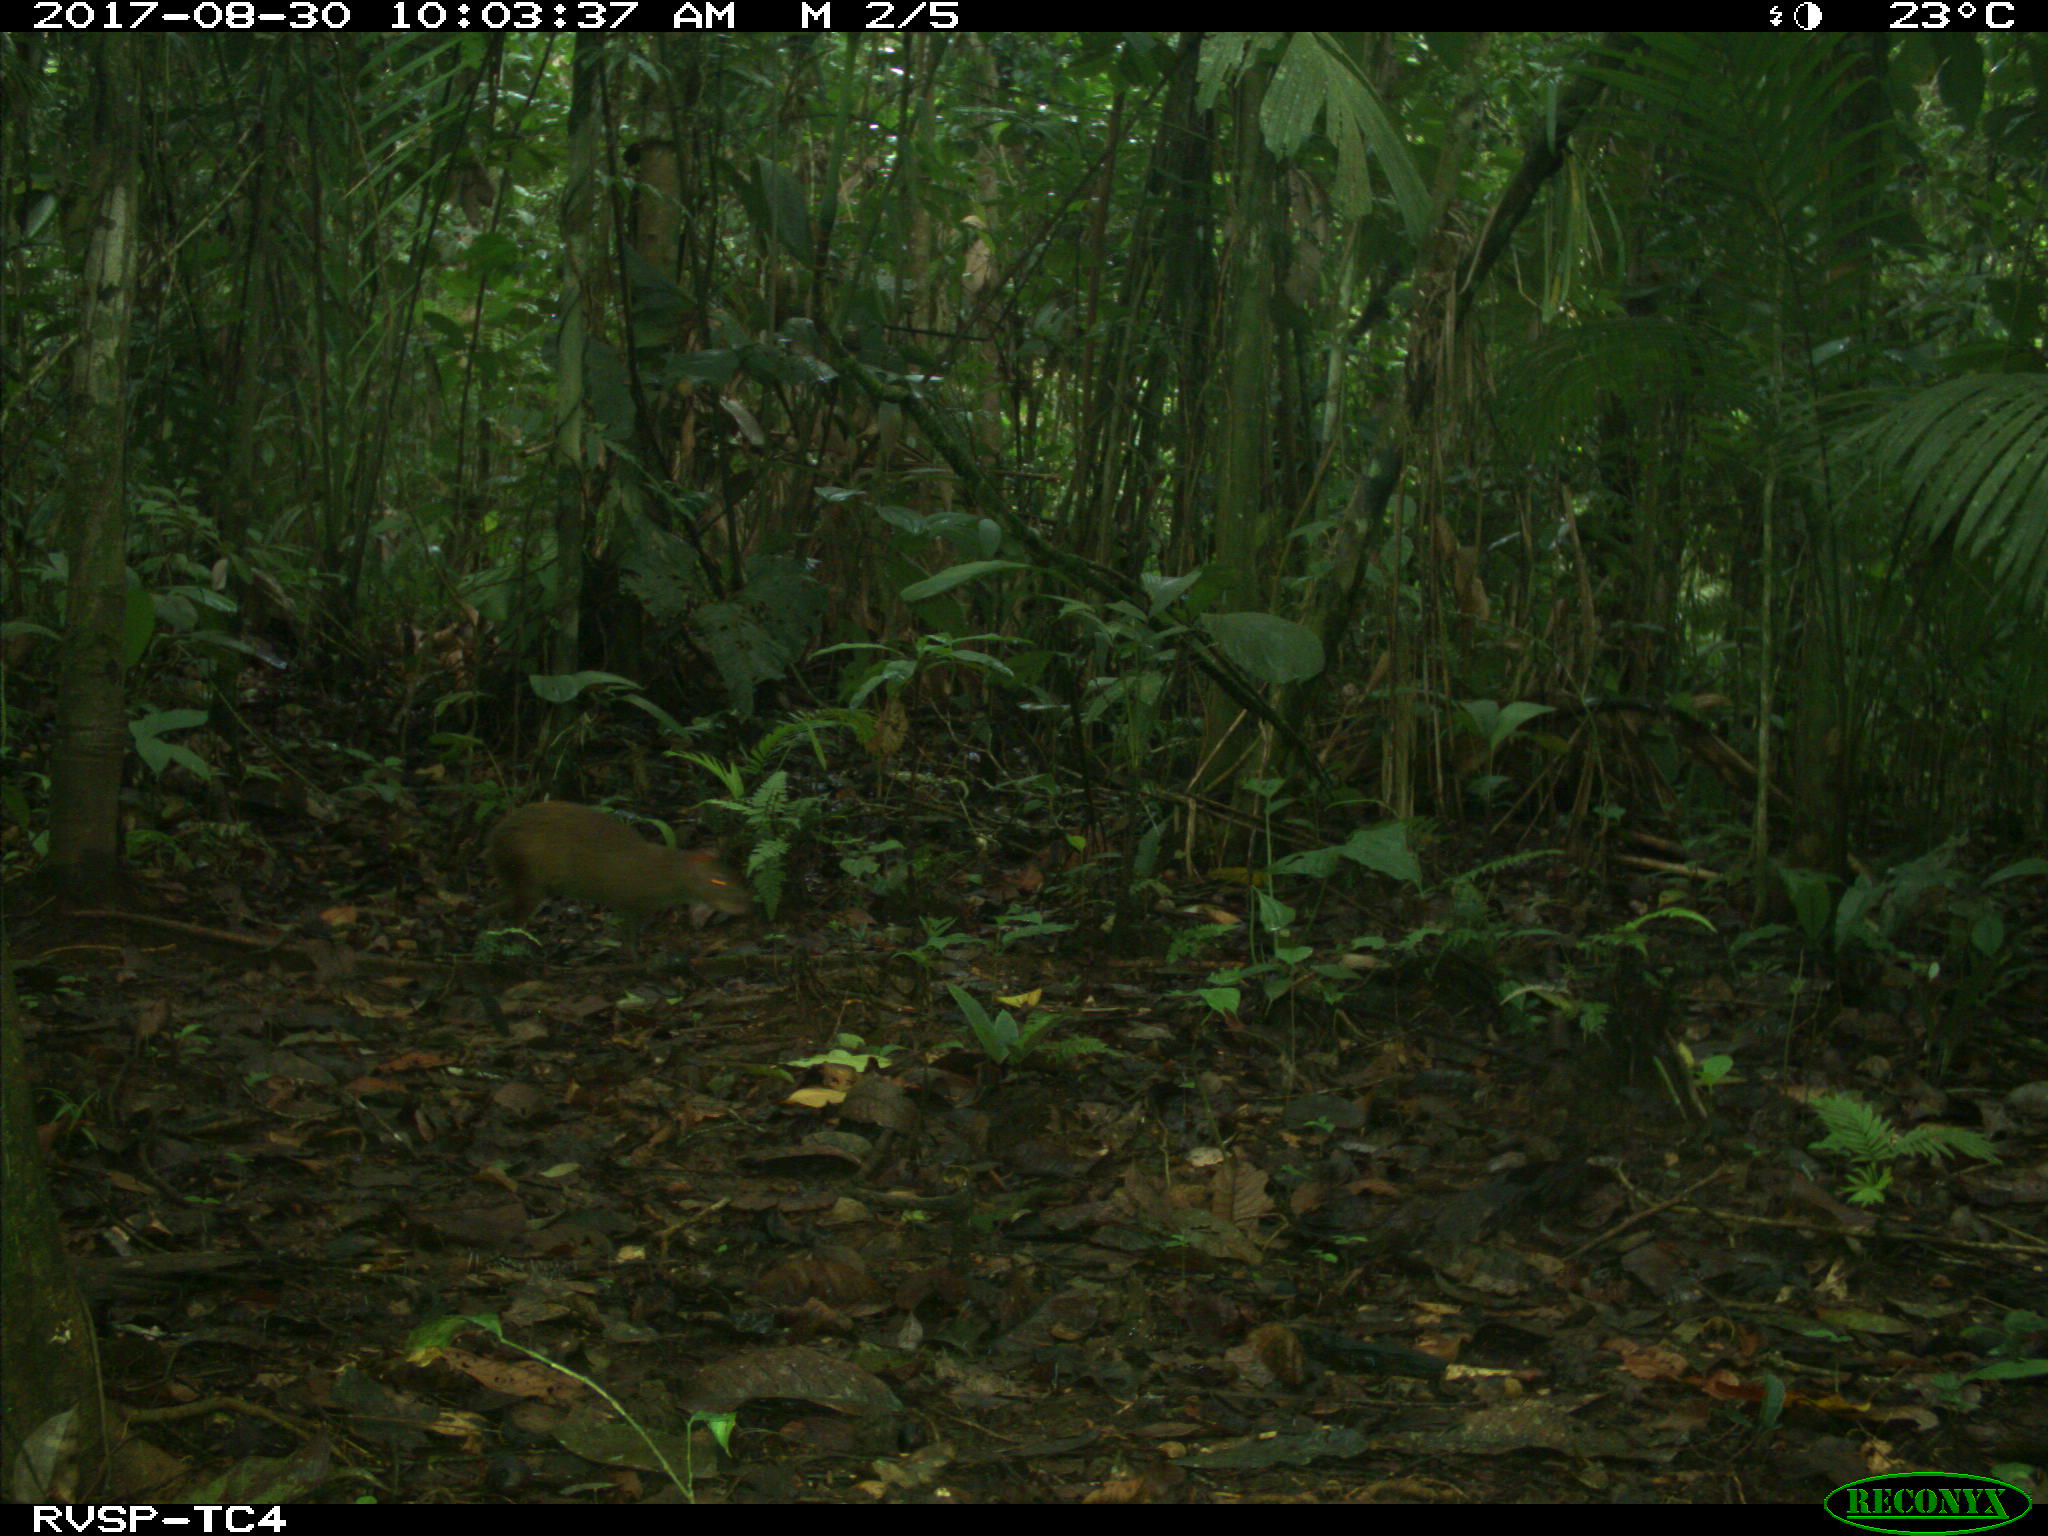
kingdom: Animalia
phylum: Chordata
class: Mammalia
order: Rodentia
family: Dasyproctidae
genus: Dasyprocta
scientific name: Dasyprocta punctata
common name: Central american agouti
